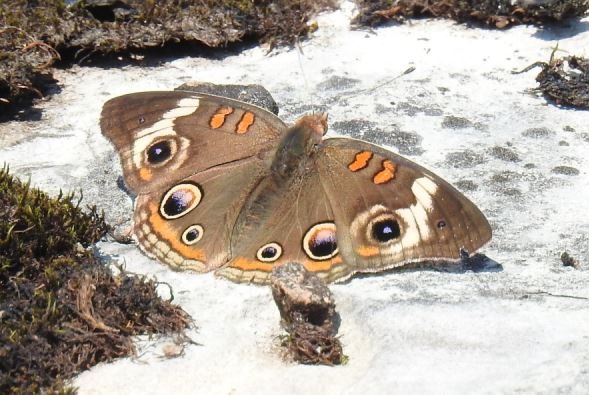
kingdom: Animalia
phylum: Arthropoda
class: Insecta
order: Lepidoptera
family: Nymphalidae
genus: Junonia
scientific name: Junonia coenia
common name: Common Buckeye
